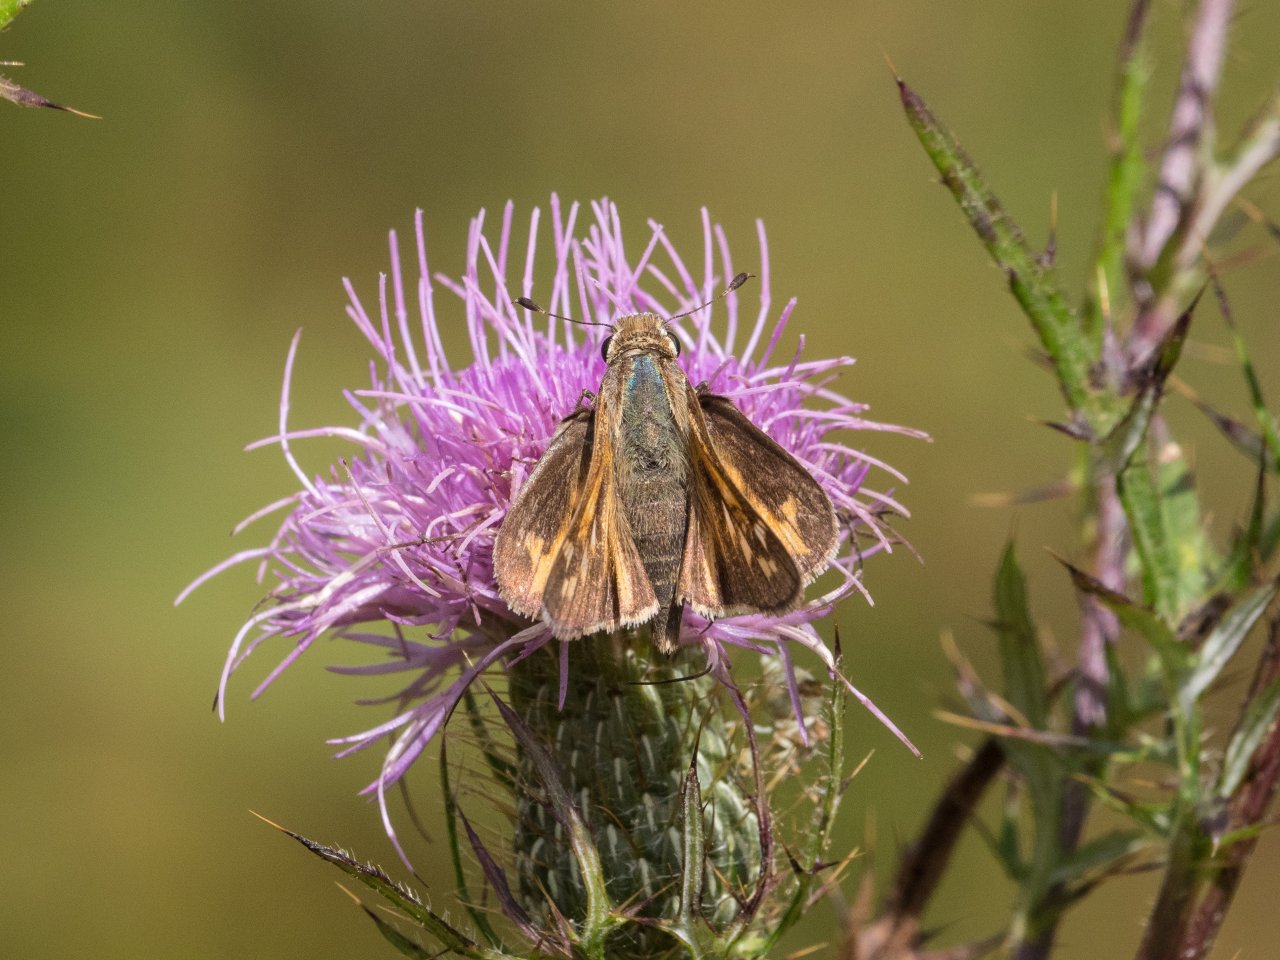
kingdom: Animalia
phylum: Arthropoda
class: Insecta
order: Lepidoptera
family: Hesperiidae
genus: Hesperia
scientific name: Hesperia leonardus
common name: Leonard's Skipper
